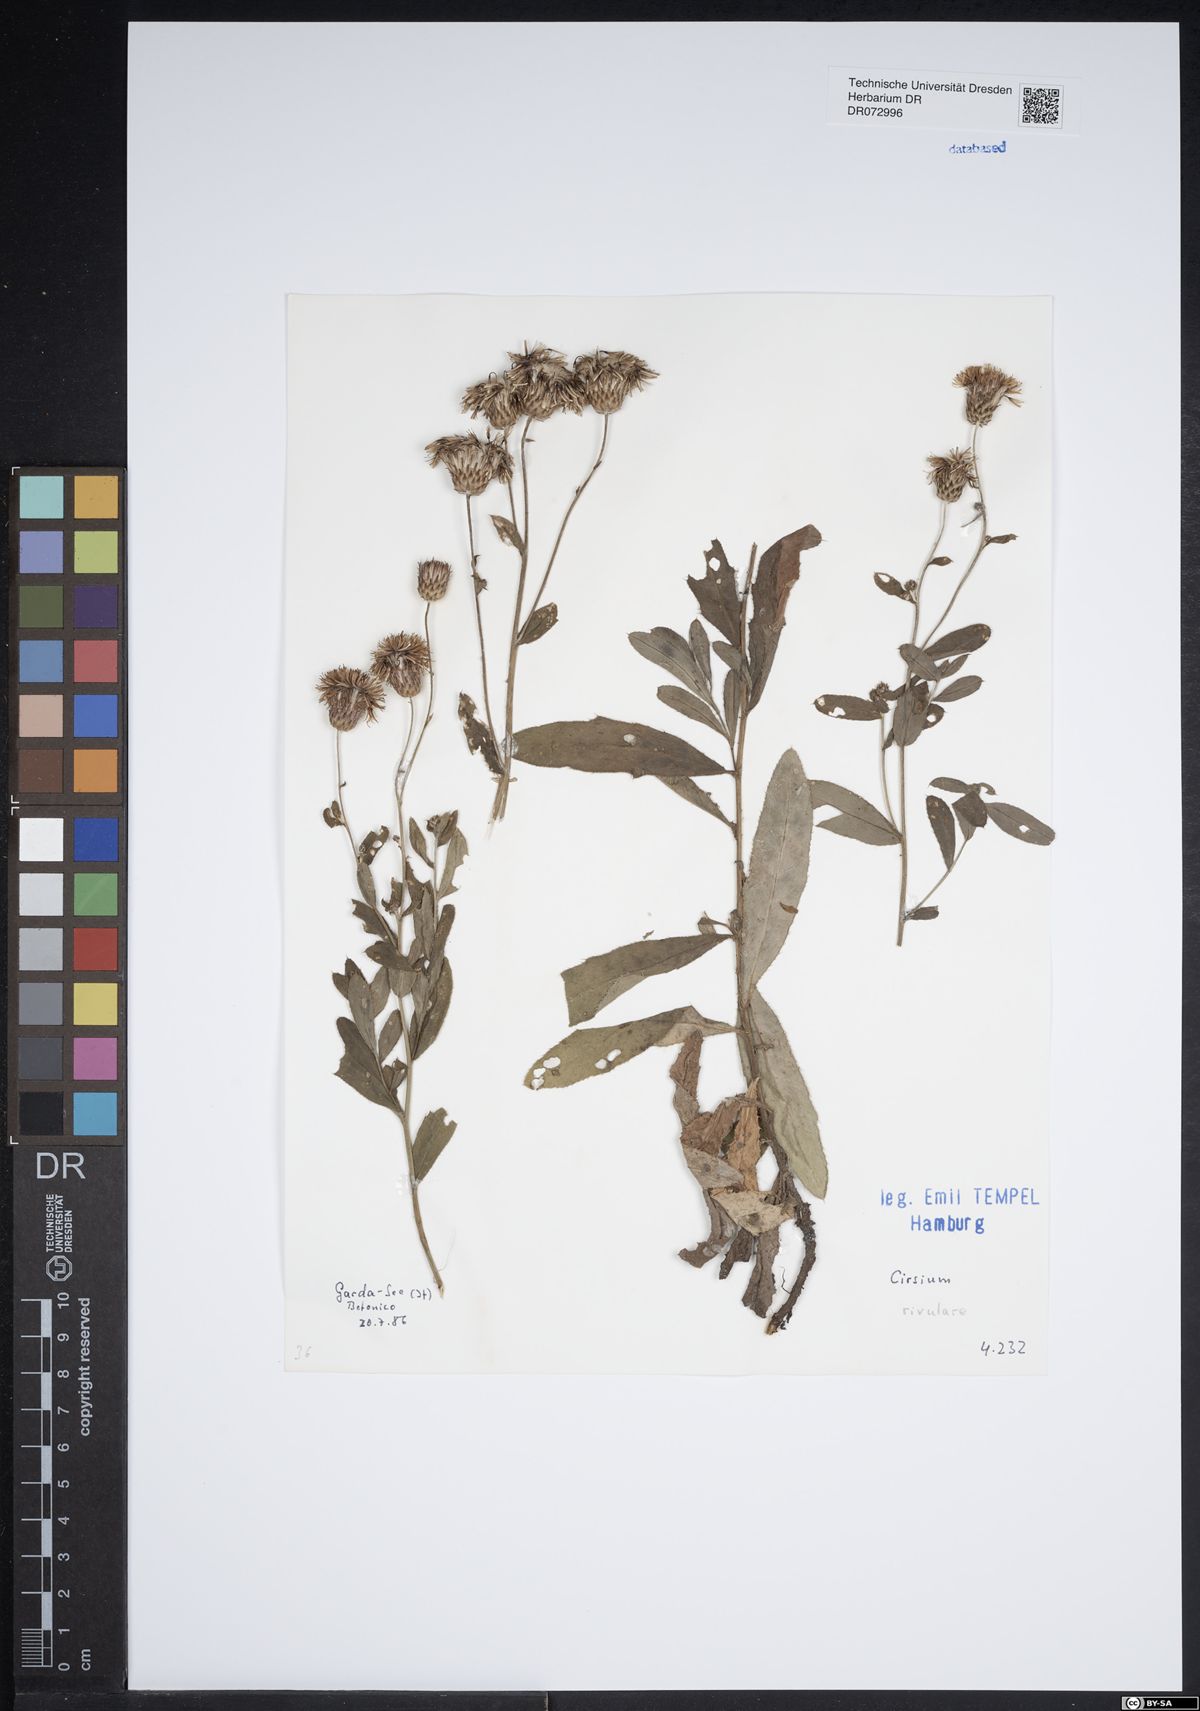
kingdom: Plantae
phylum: Tracheophyta
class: Magnoliopsida
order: Asterales
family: Asteraceae
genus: Cirsium
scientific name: Cirsium rivulare
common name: Brook thistle
